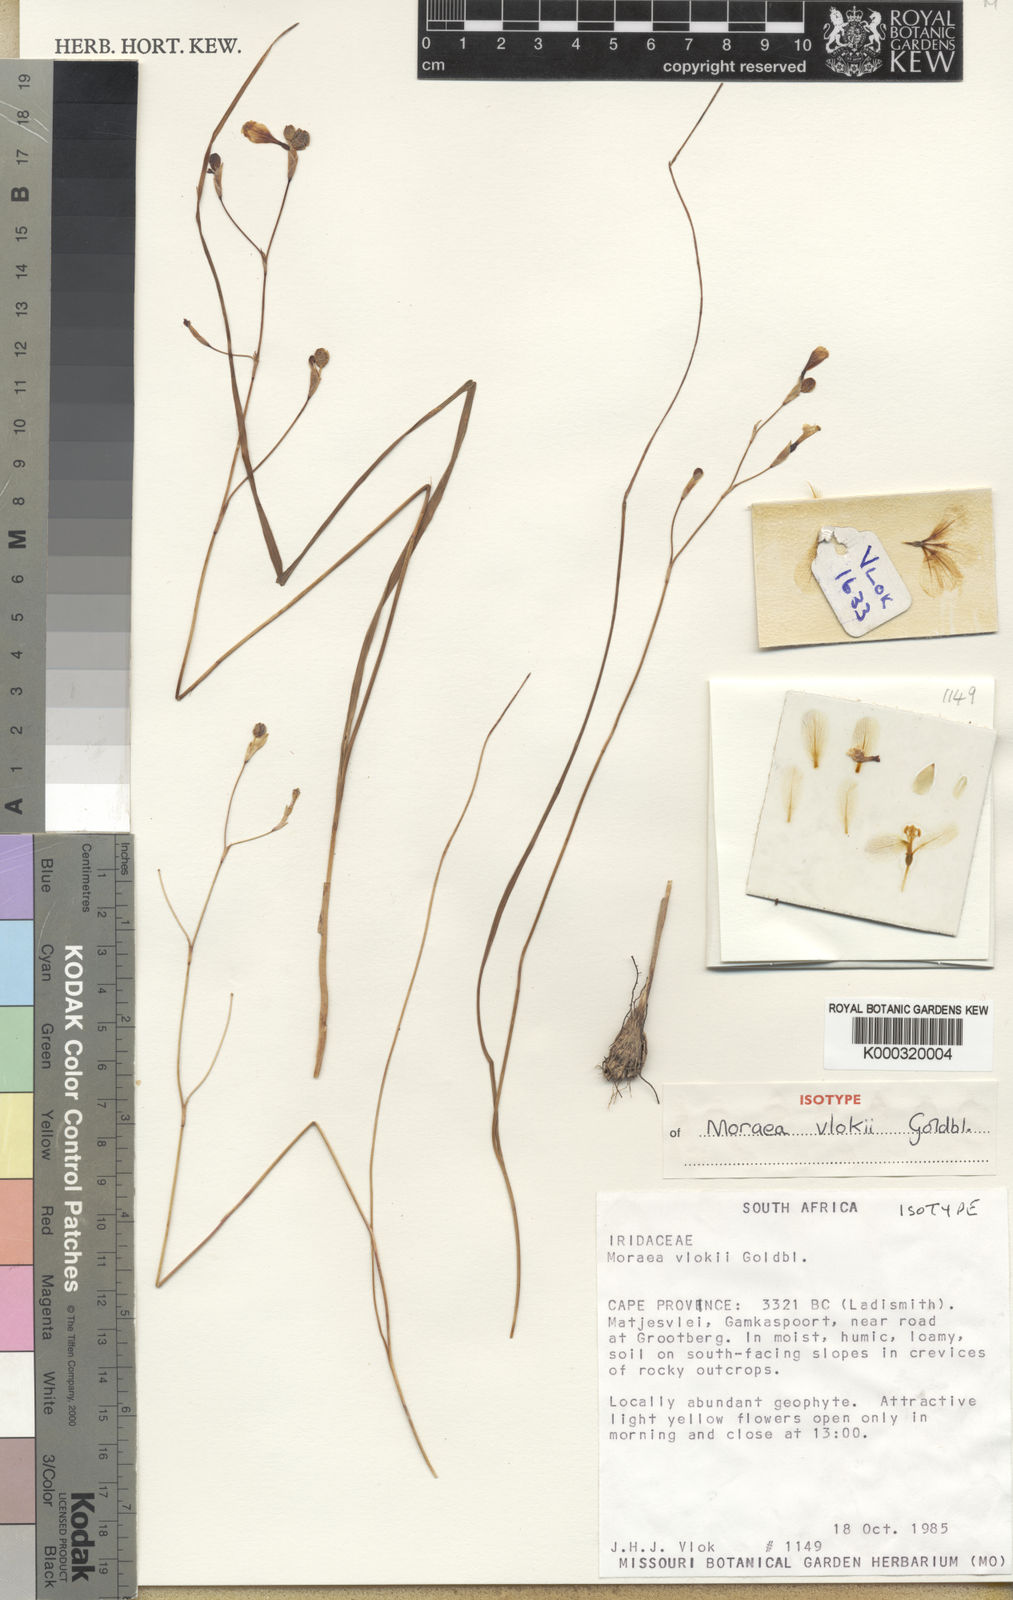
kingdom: Plantae
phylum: Tracheophyta
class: Liliopsida
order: Asparagales
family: Iridaceae
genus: Moraea
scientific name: Moraea vlokii
